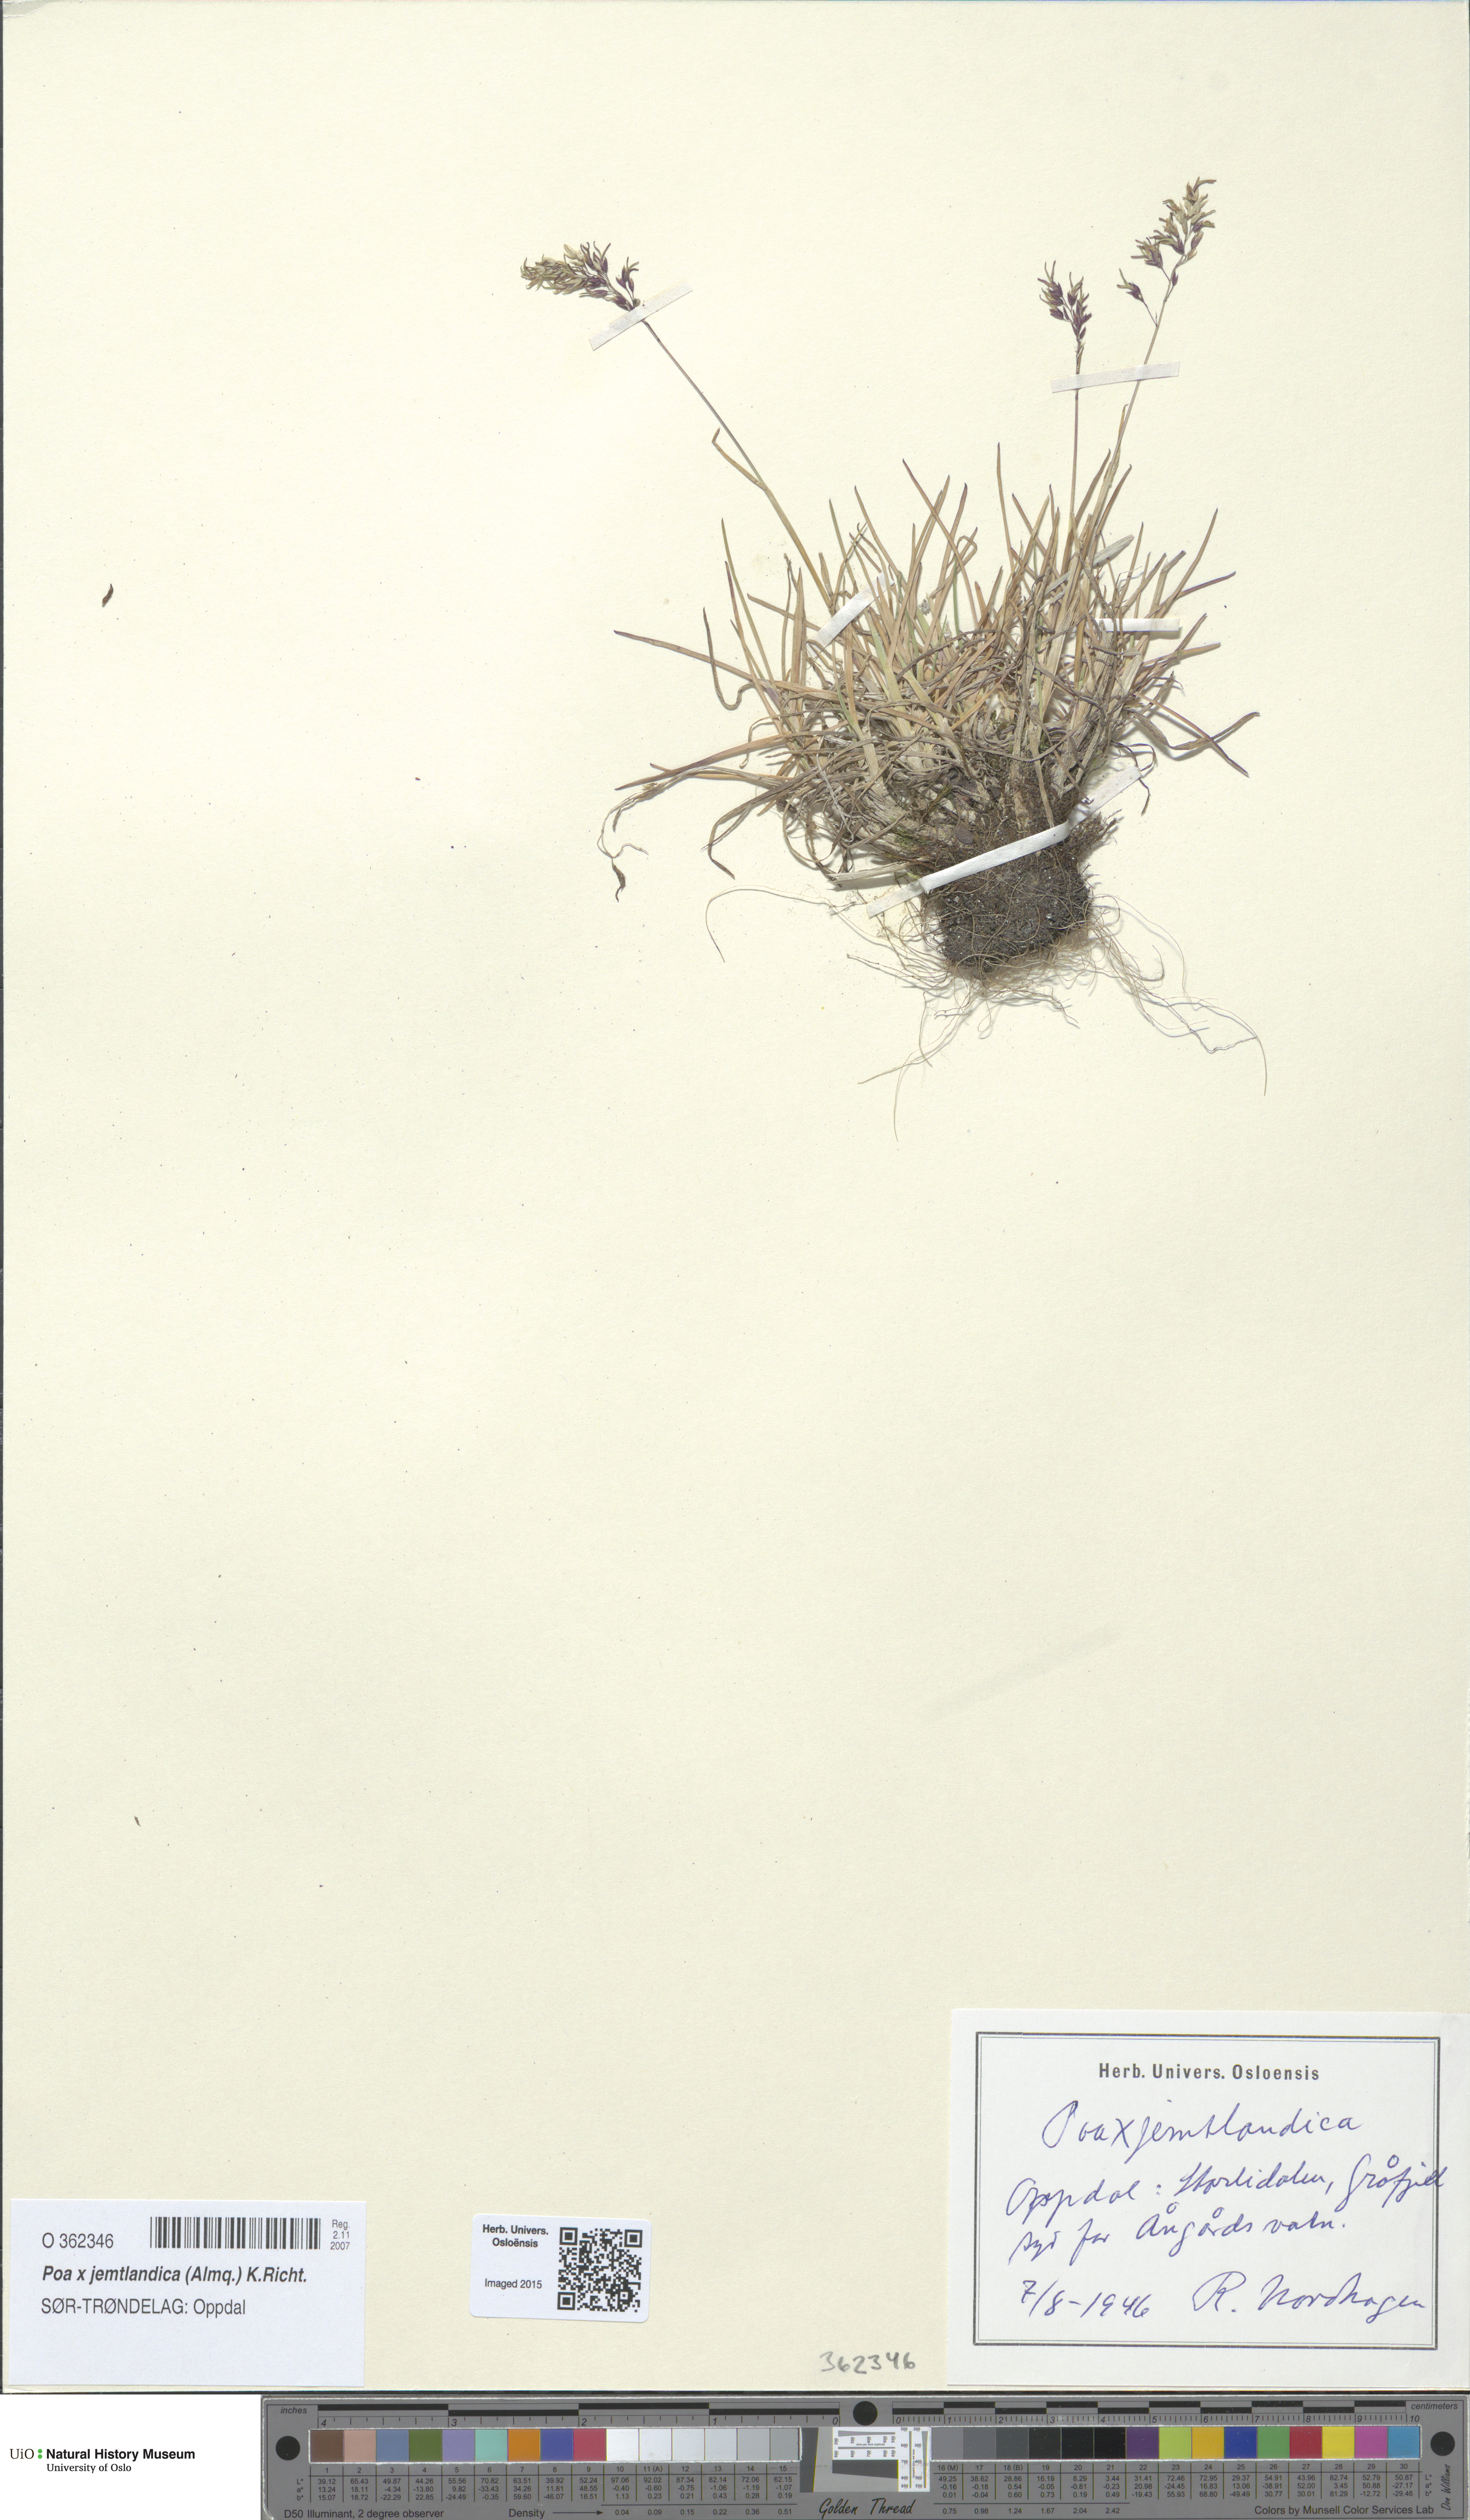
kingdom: Plantae
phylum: Tracheophyta
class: Liliopsida
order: Poales
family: Poaceae
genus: Poa
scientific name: Poa jemtlandica
